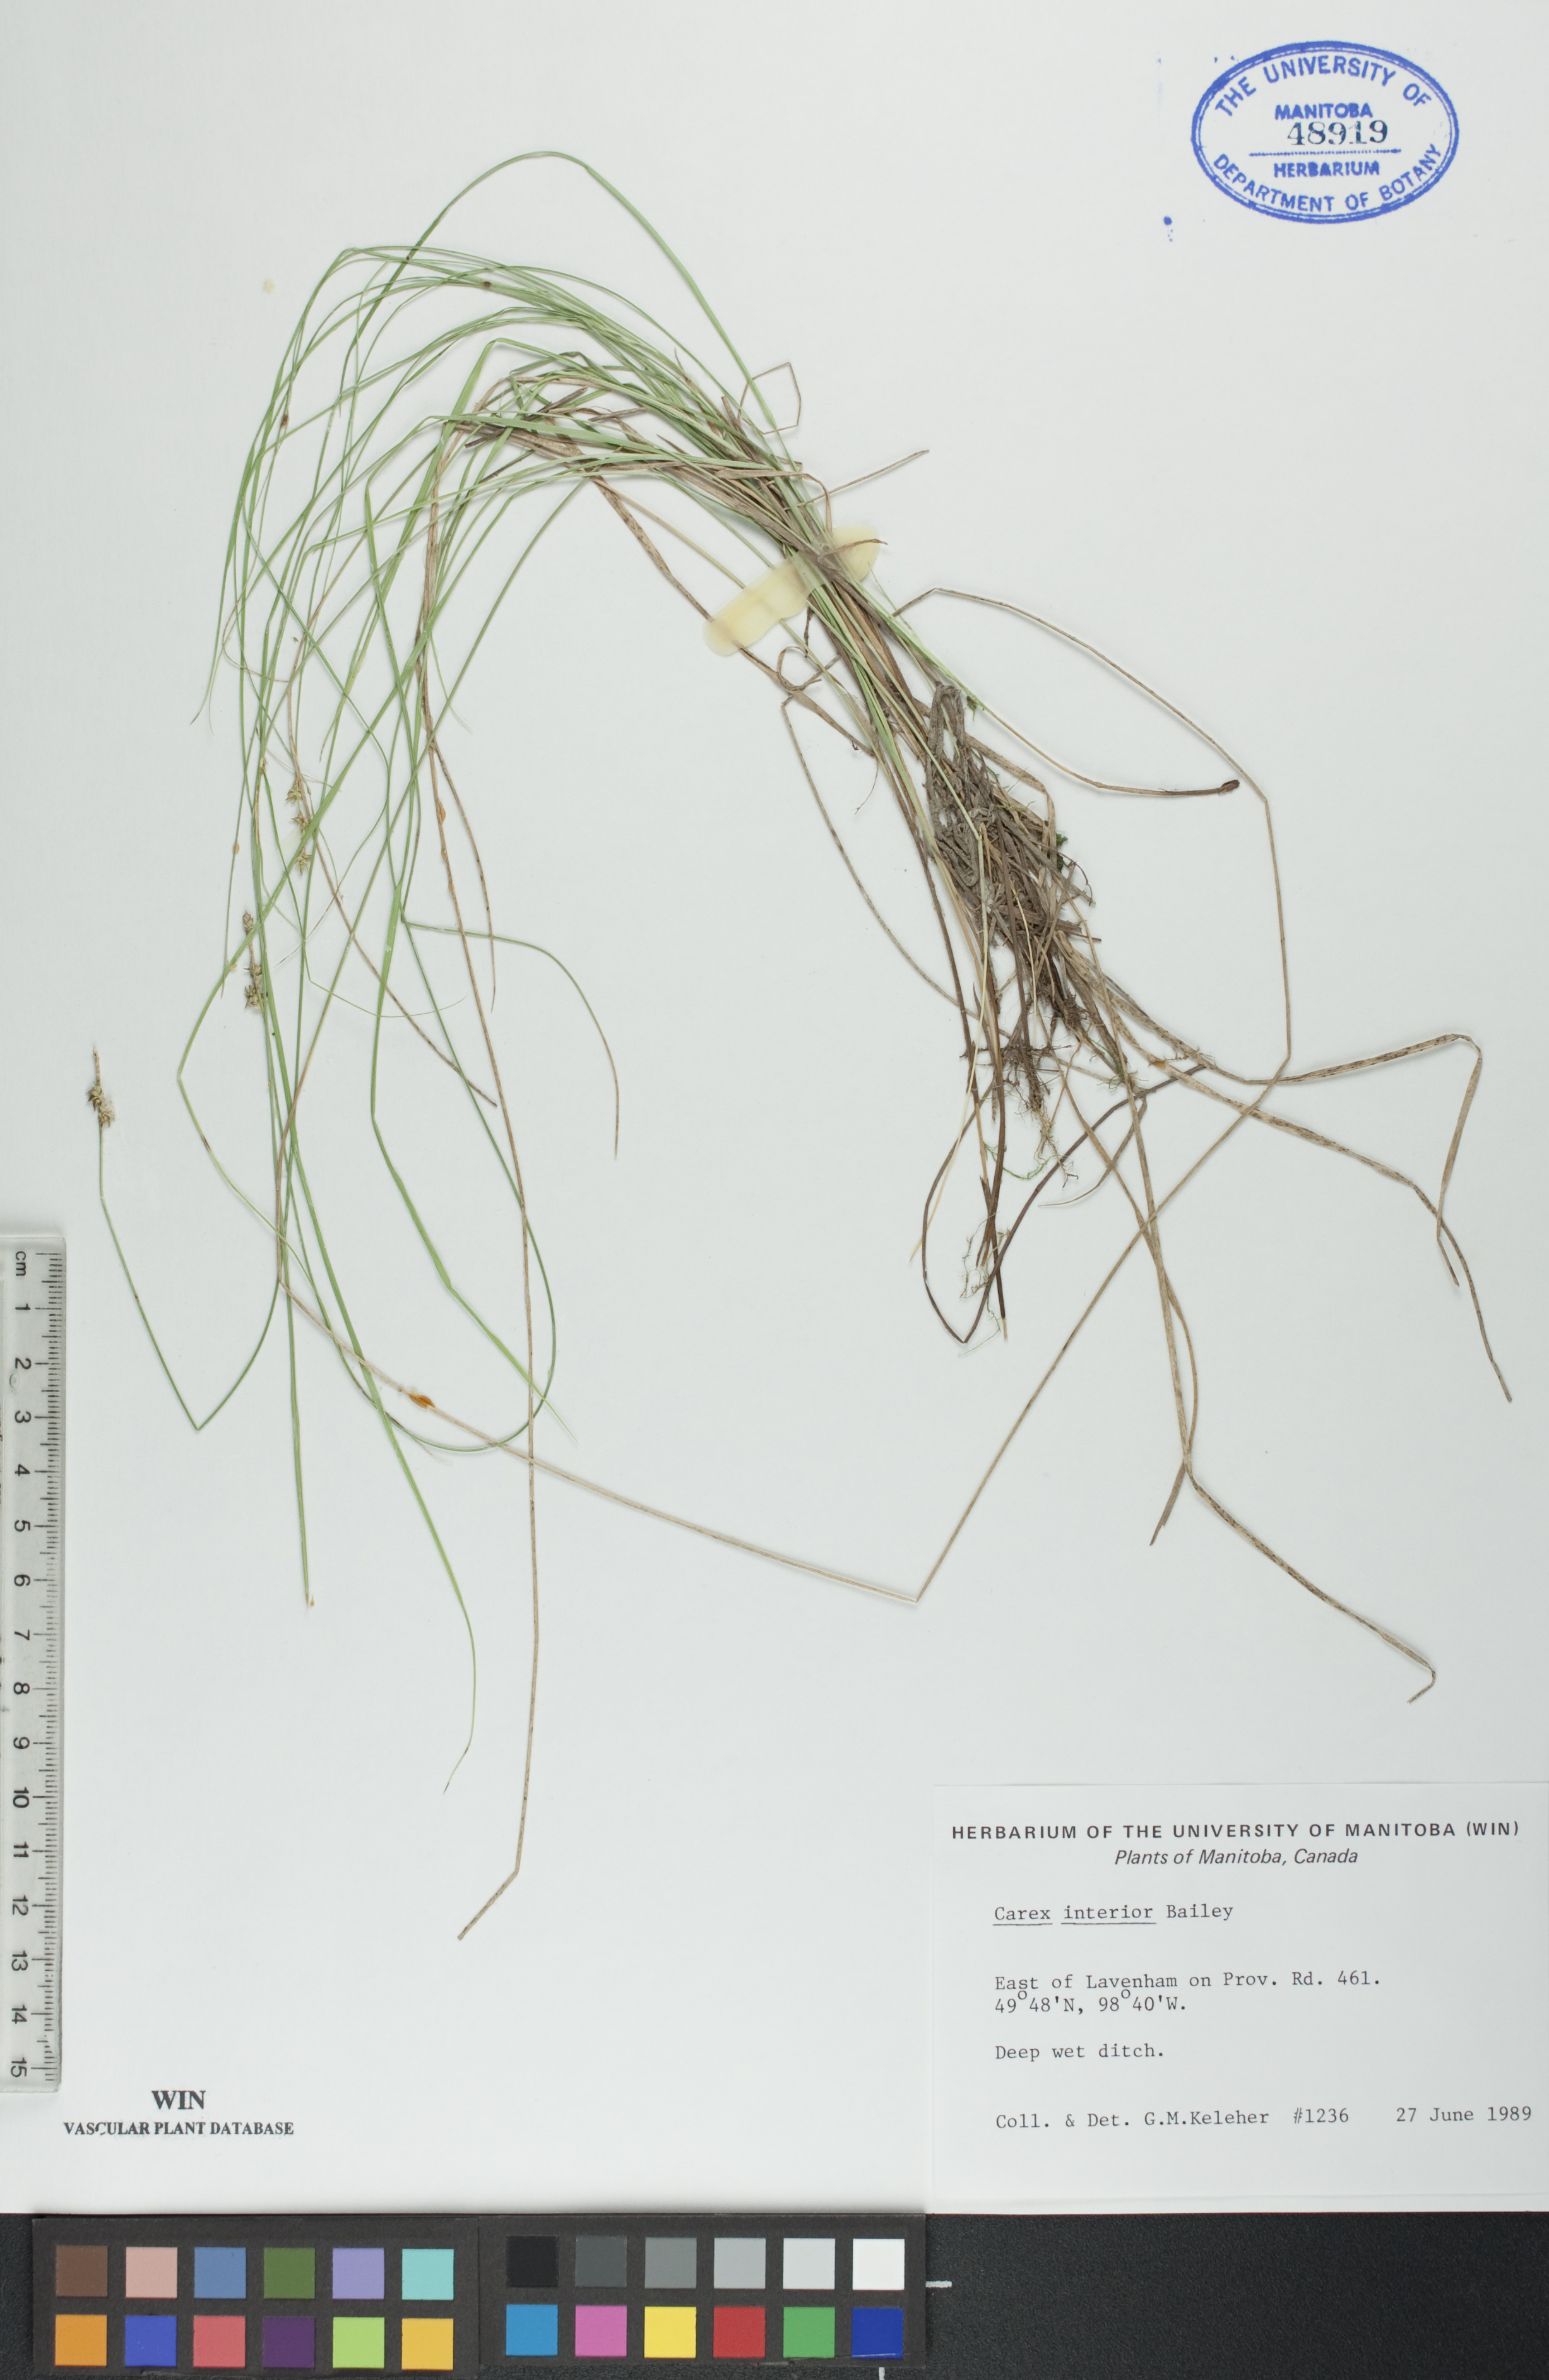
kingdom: Plantae
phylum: Tracheophyta
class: Liliopsida
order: Poales
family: Cyperaceae
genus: Carex
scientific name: Carex interior
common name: Inland sedge
